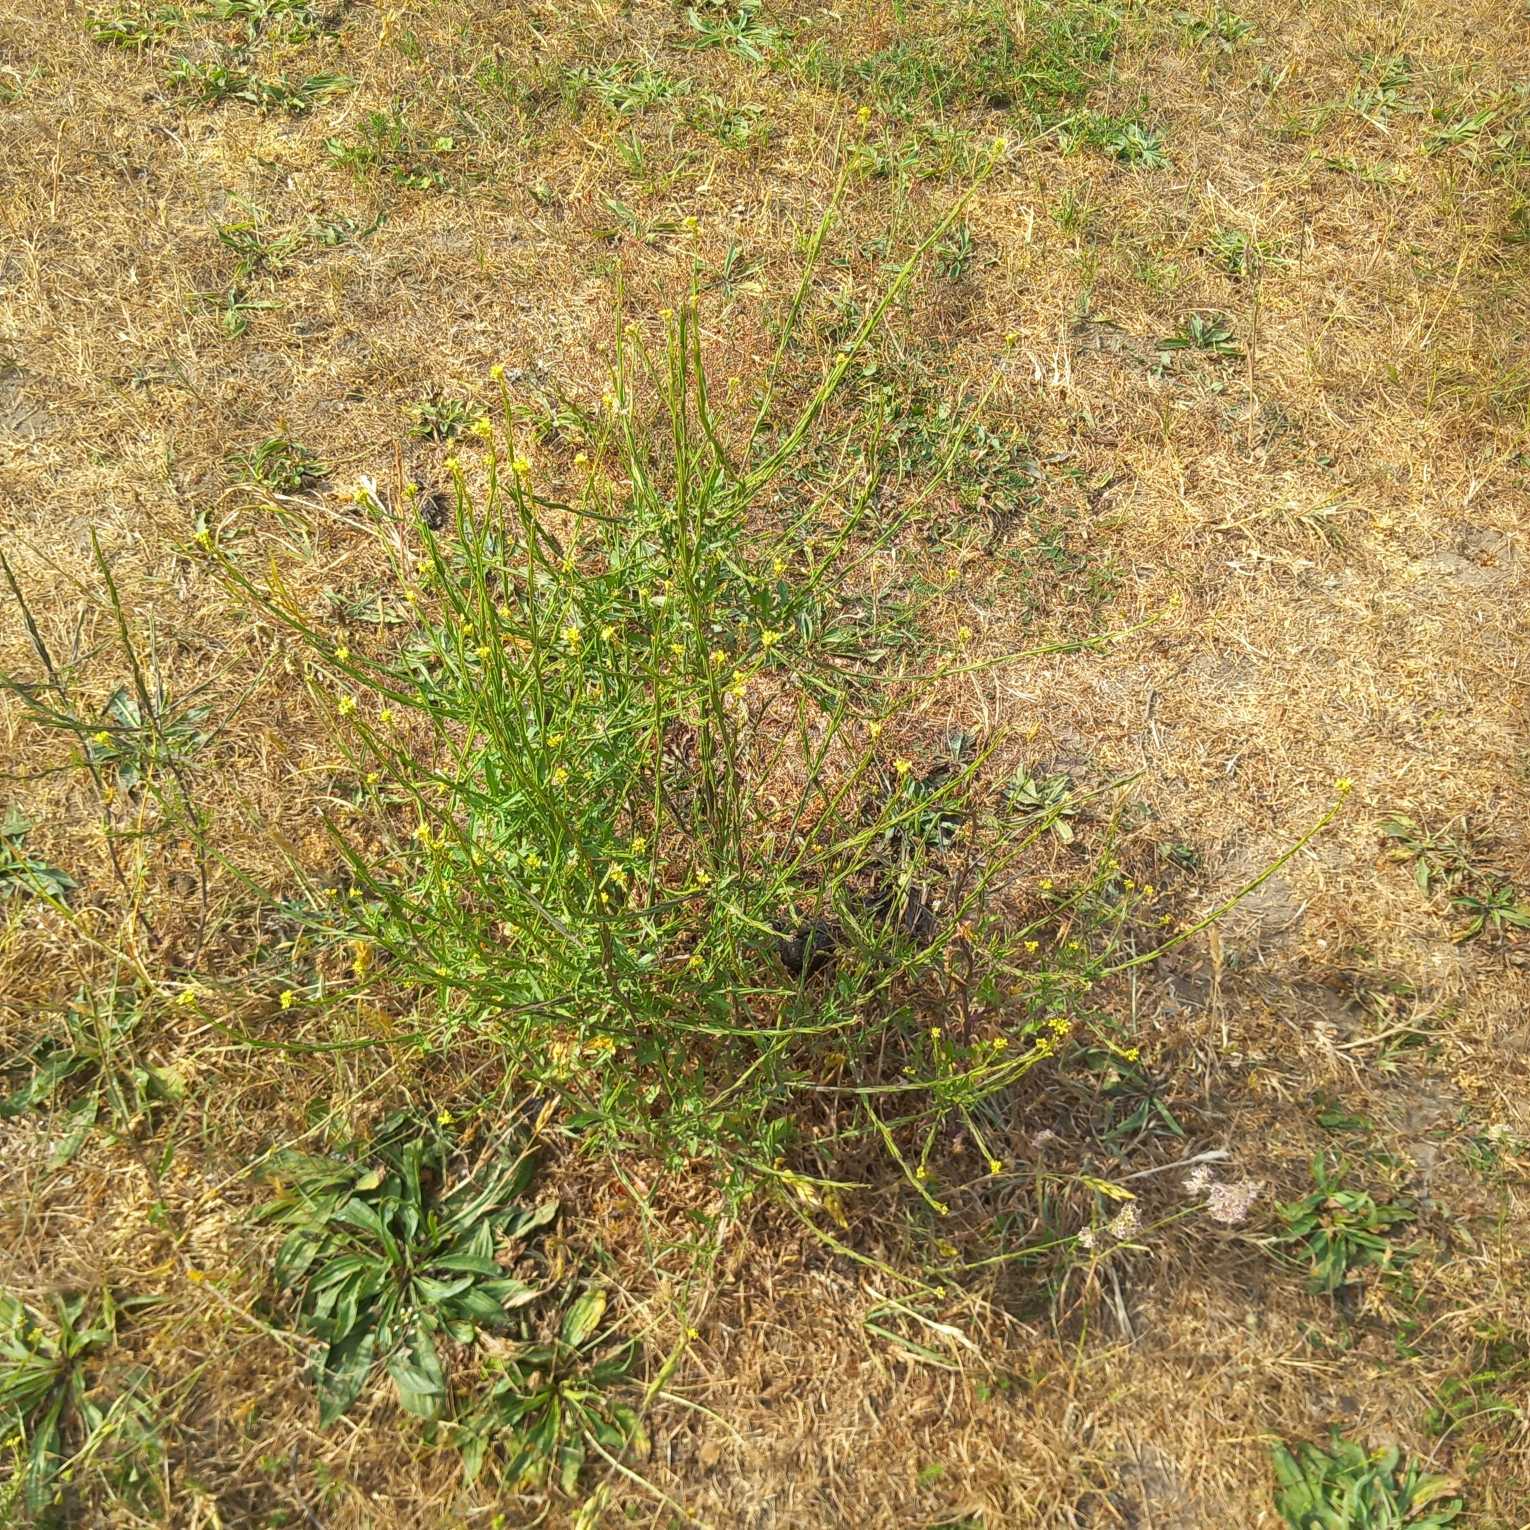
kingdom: Plantae
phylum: Tracheophyta
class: Magnoliopsida
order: Brassicales
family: Brassicaceae
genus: Sisymbrium
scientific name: Sisymbrium officinale
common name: Rank vejsennep
